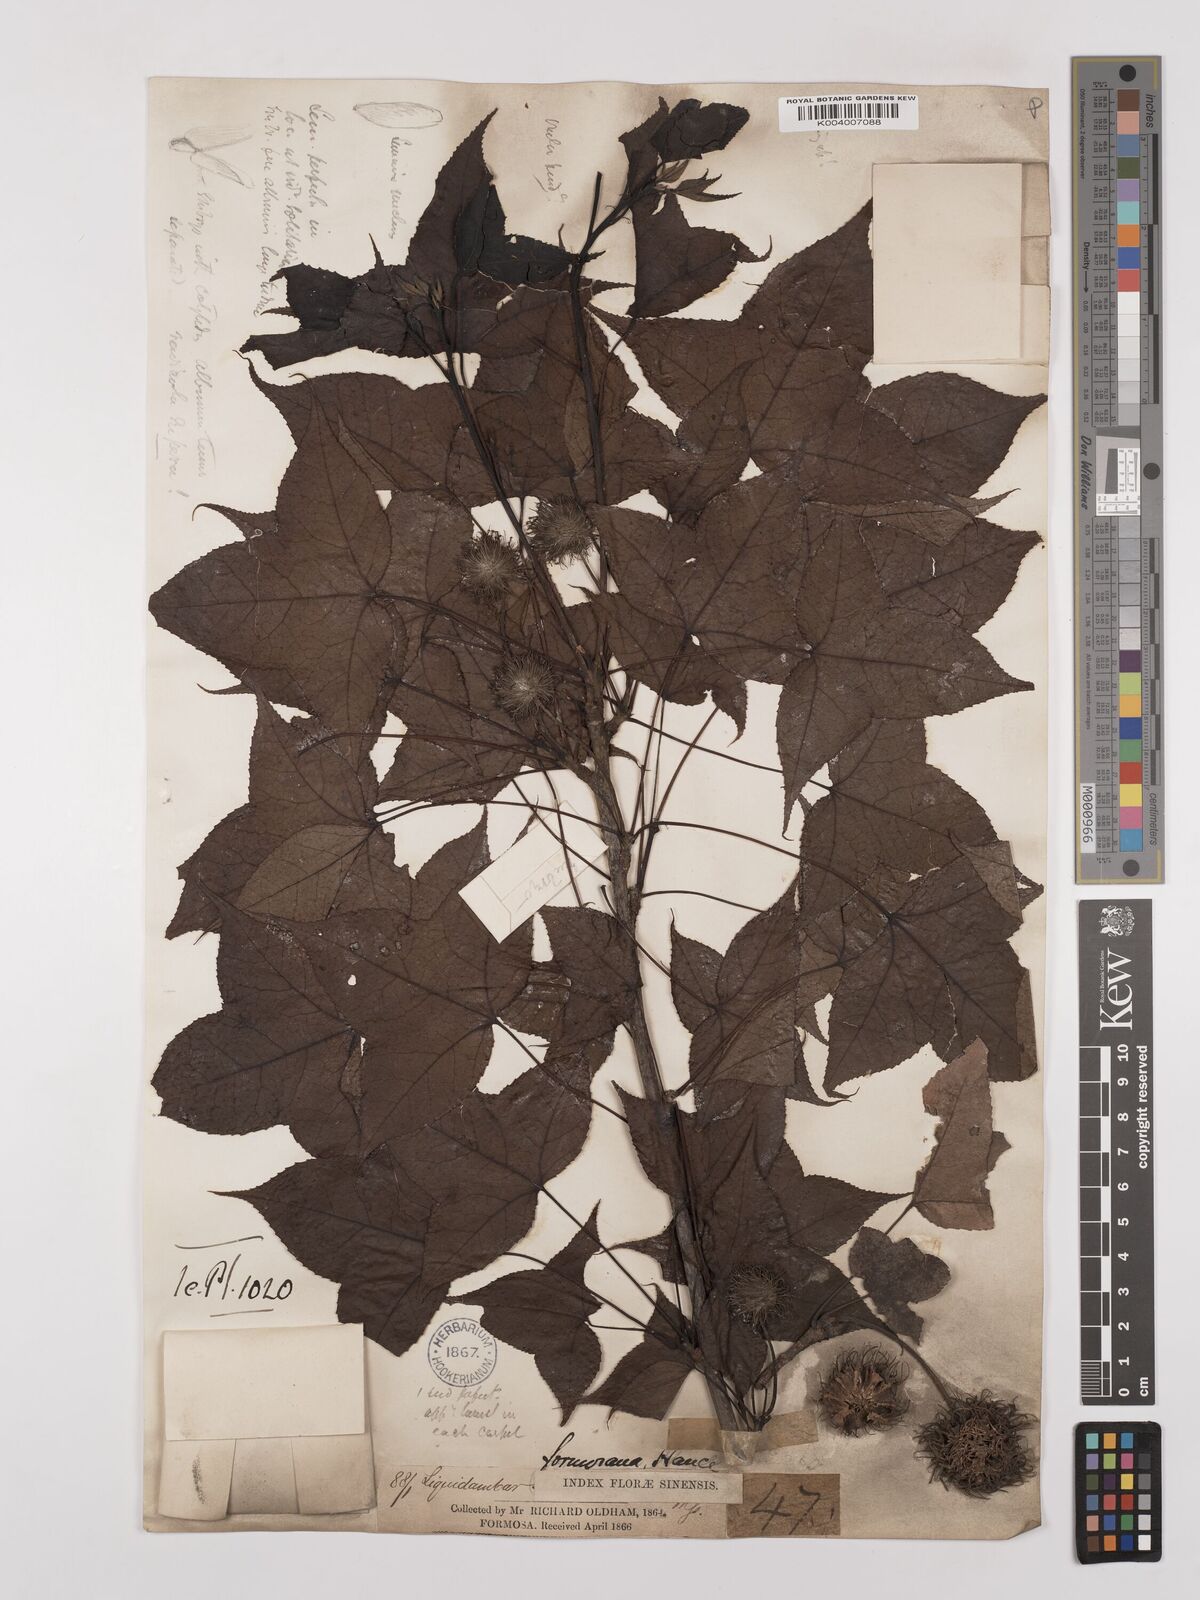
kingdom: Plantae
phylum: Tracheophyta
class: Magnoliopsida
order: Saxifragales
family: Altingiaceae
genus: Liquidambar
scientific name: Liquidambar formosana
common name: Chinese sweet gum
